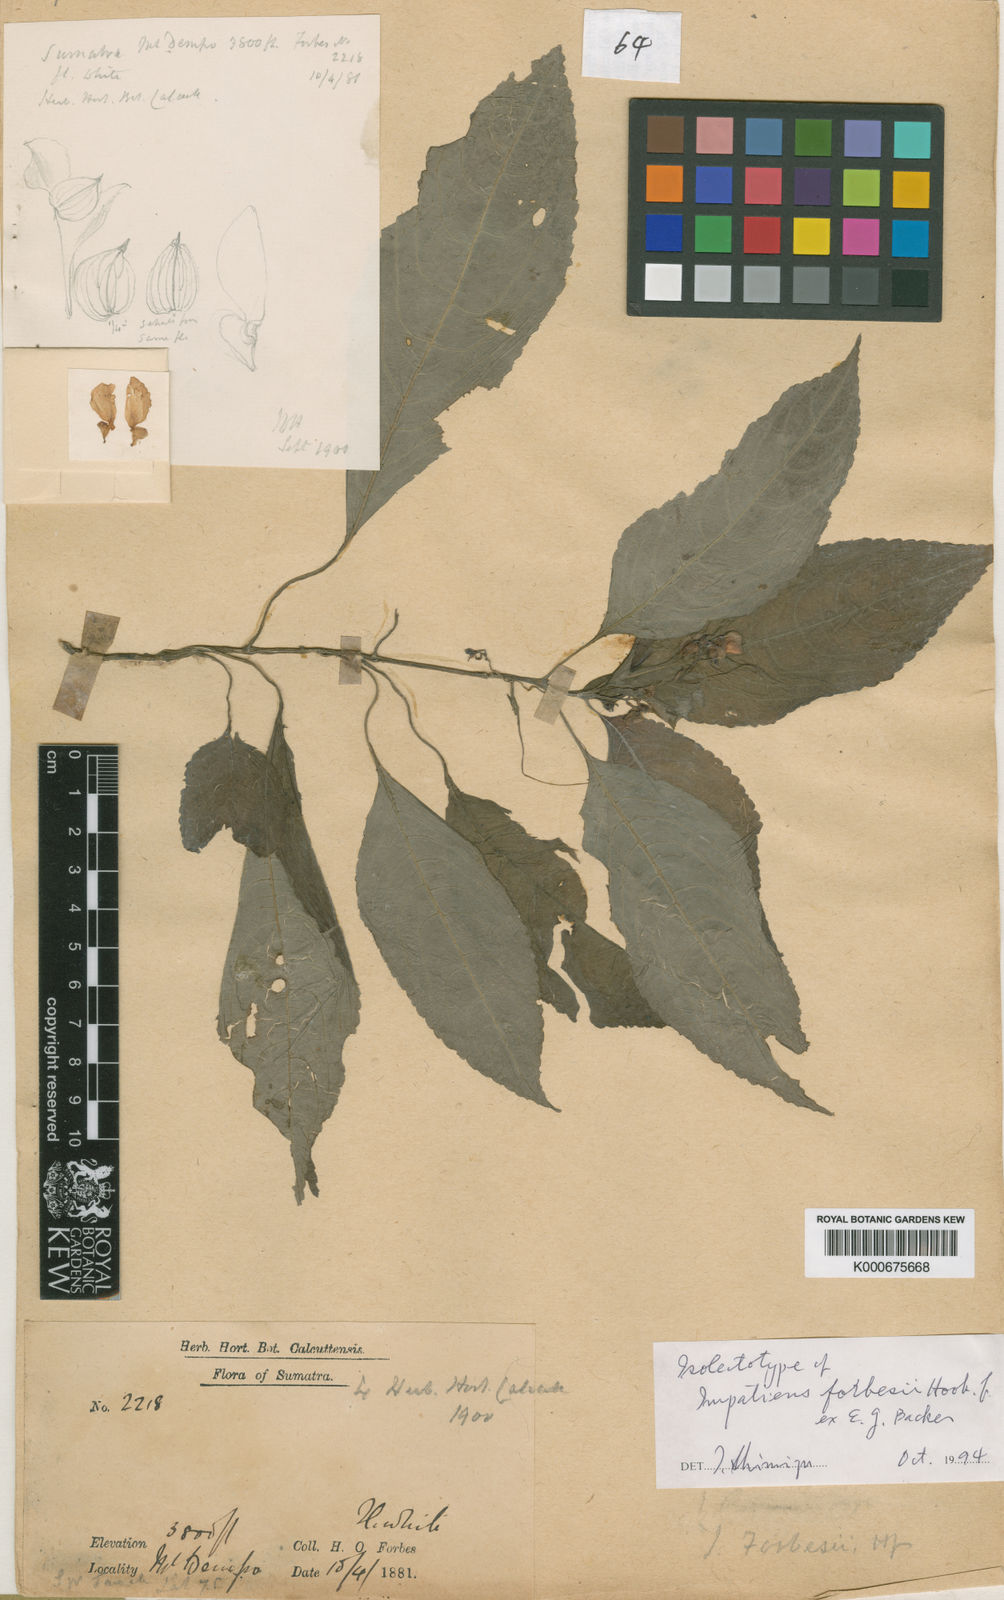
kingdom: Plantae
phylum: Tracheophyta
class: Magnoliopsida
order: Ericales
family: Balsaminaceae
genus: Impatiens
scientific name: Impatiens
